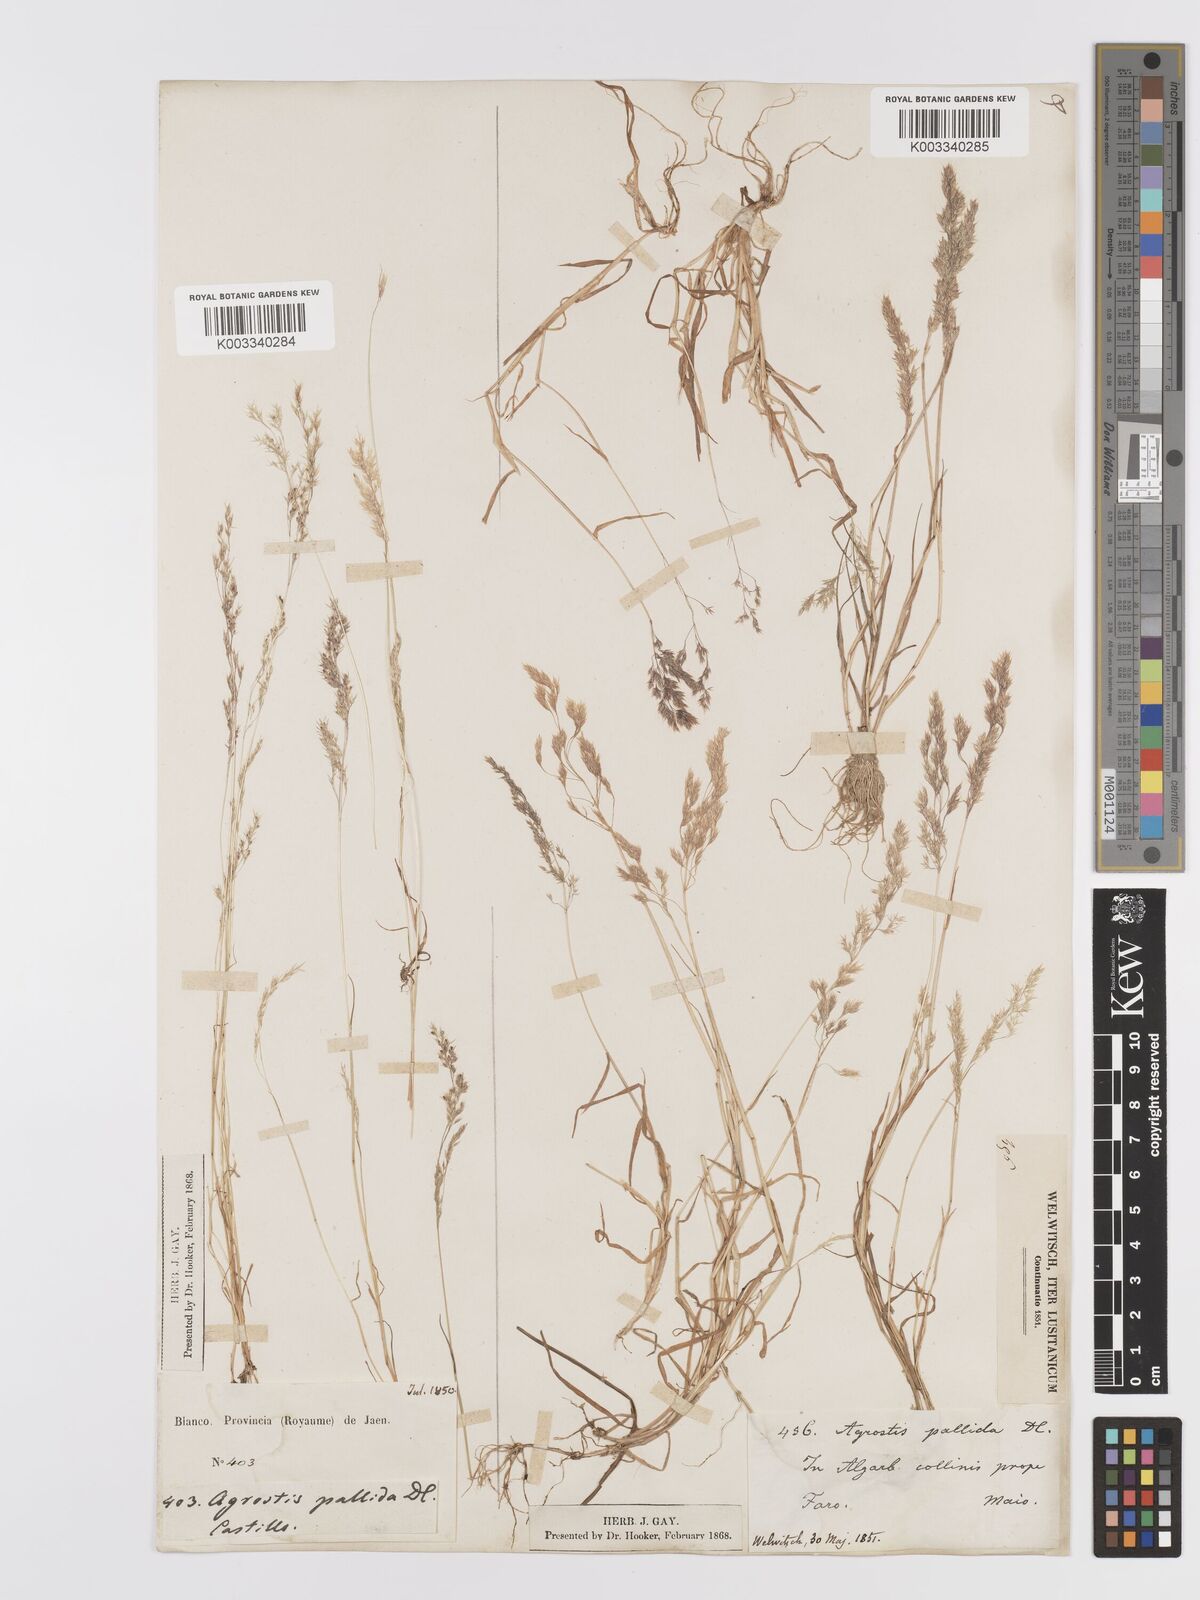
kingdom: Plantae
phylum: Tracheophyta
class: Liliopsida
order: Poales
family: Poaceae
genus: Agrostis
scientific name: Agrostis pourretii
